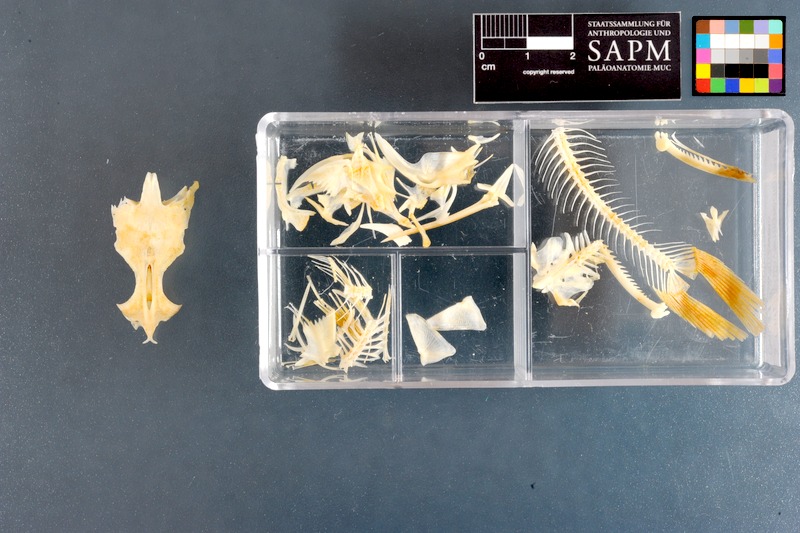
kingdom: Animalia
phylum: Chordata
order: Siluriformes
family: Claroteidae
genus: Chrysichthys
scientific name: Chrysichthys nigrodigitatus
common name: Bagrid catfish
